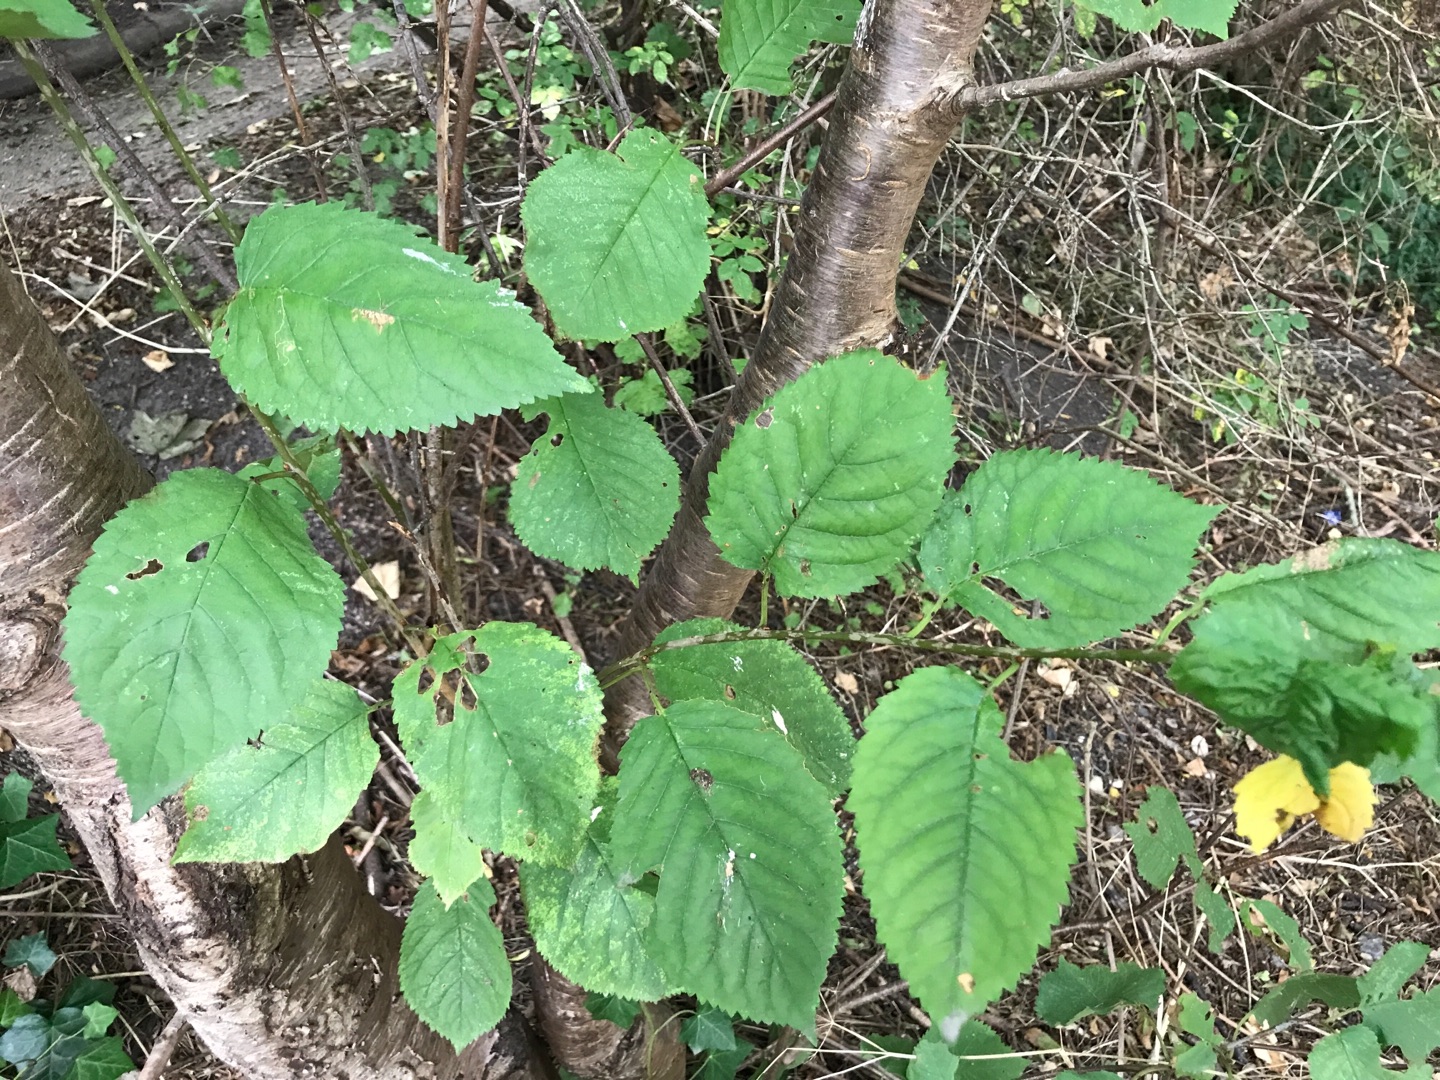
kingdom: Plantae
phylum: Tracheophyta
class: Magnoliopsida
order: Rosales
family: Rosaceae
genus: Prunus
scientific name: Prunus cerasifera
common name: Mirabel
